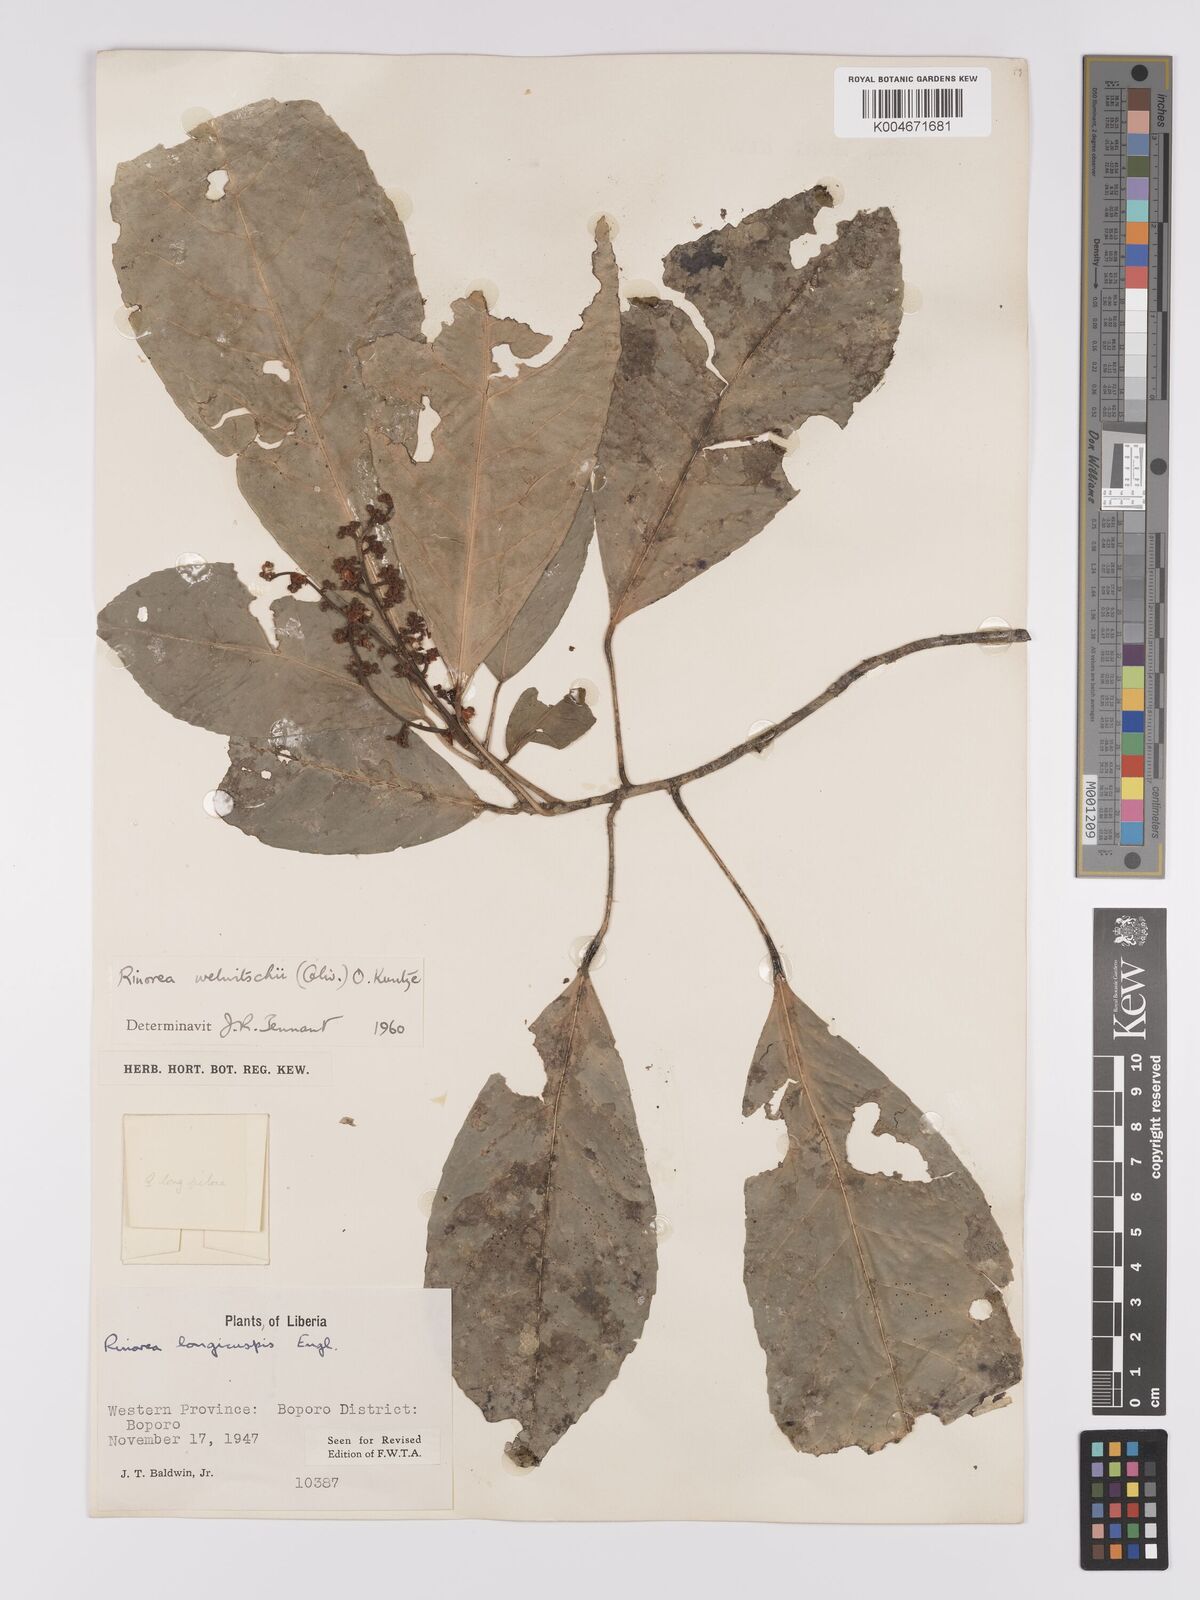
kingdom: Plantae
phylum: Tracheophyta
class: Magnoliopsida
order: Malpighiales
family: Violaceae
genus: Rinorea
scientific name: Rinorea welwitschii
